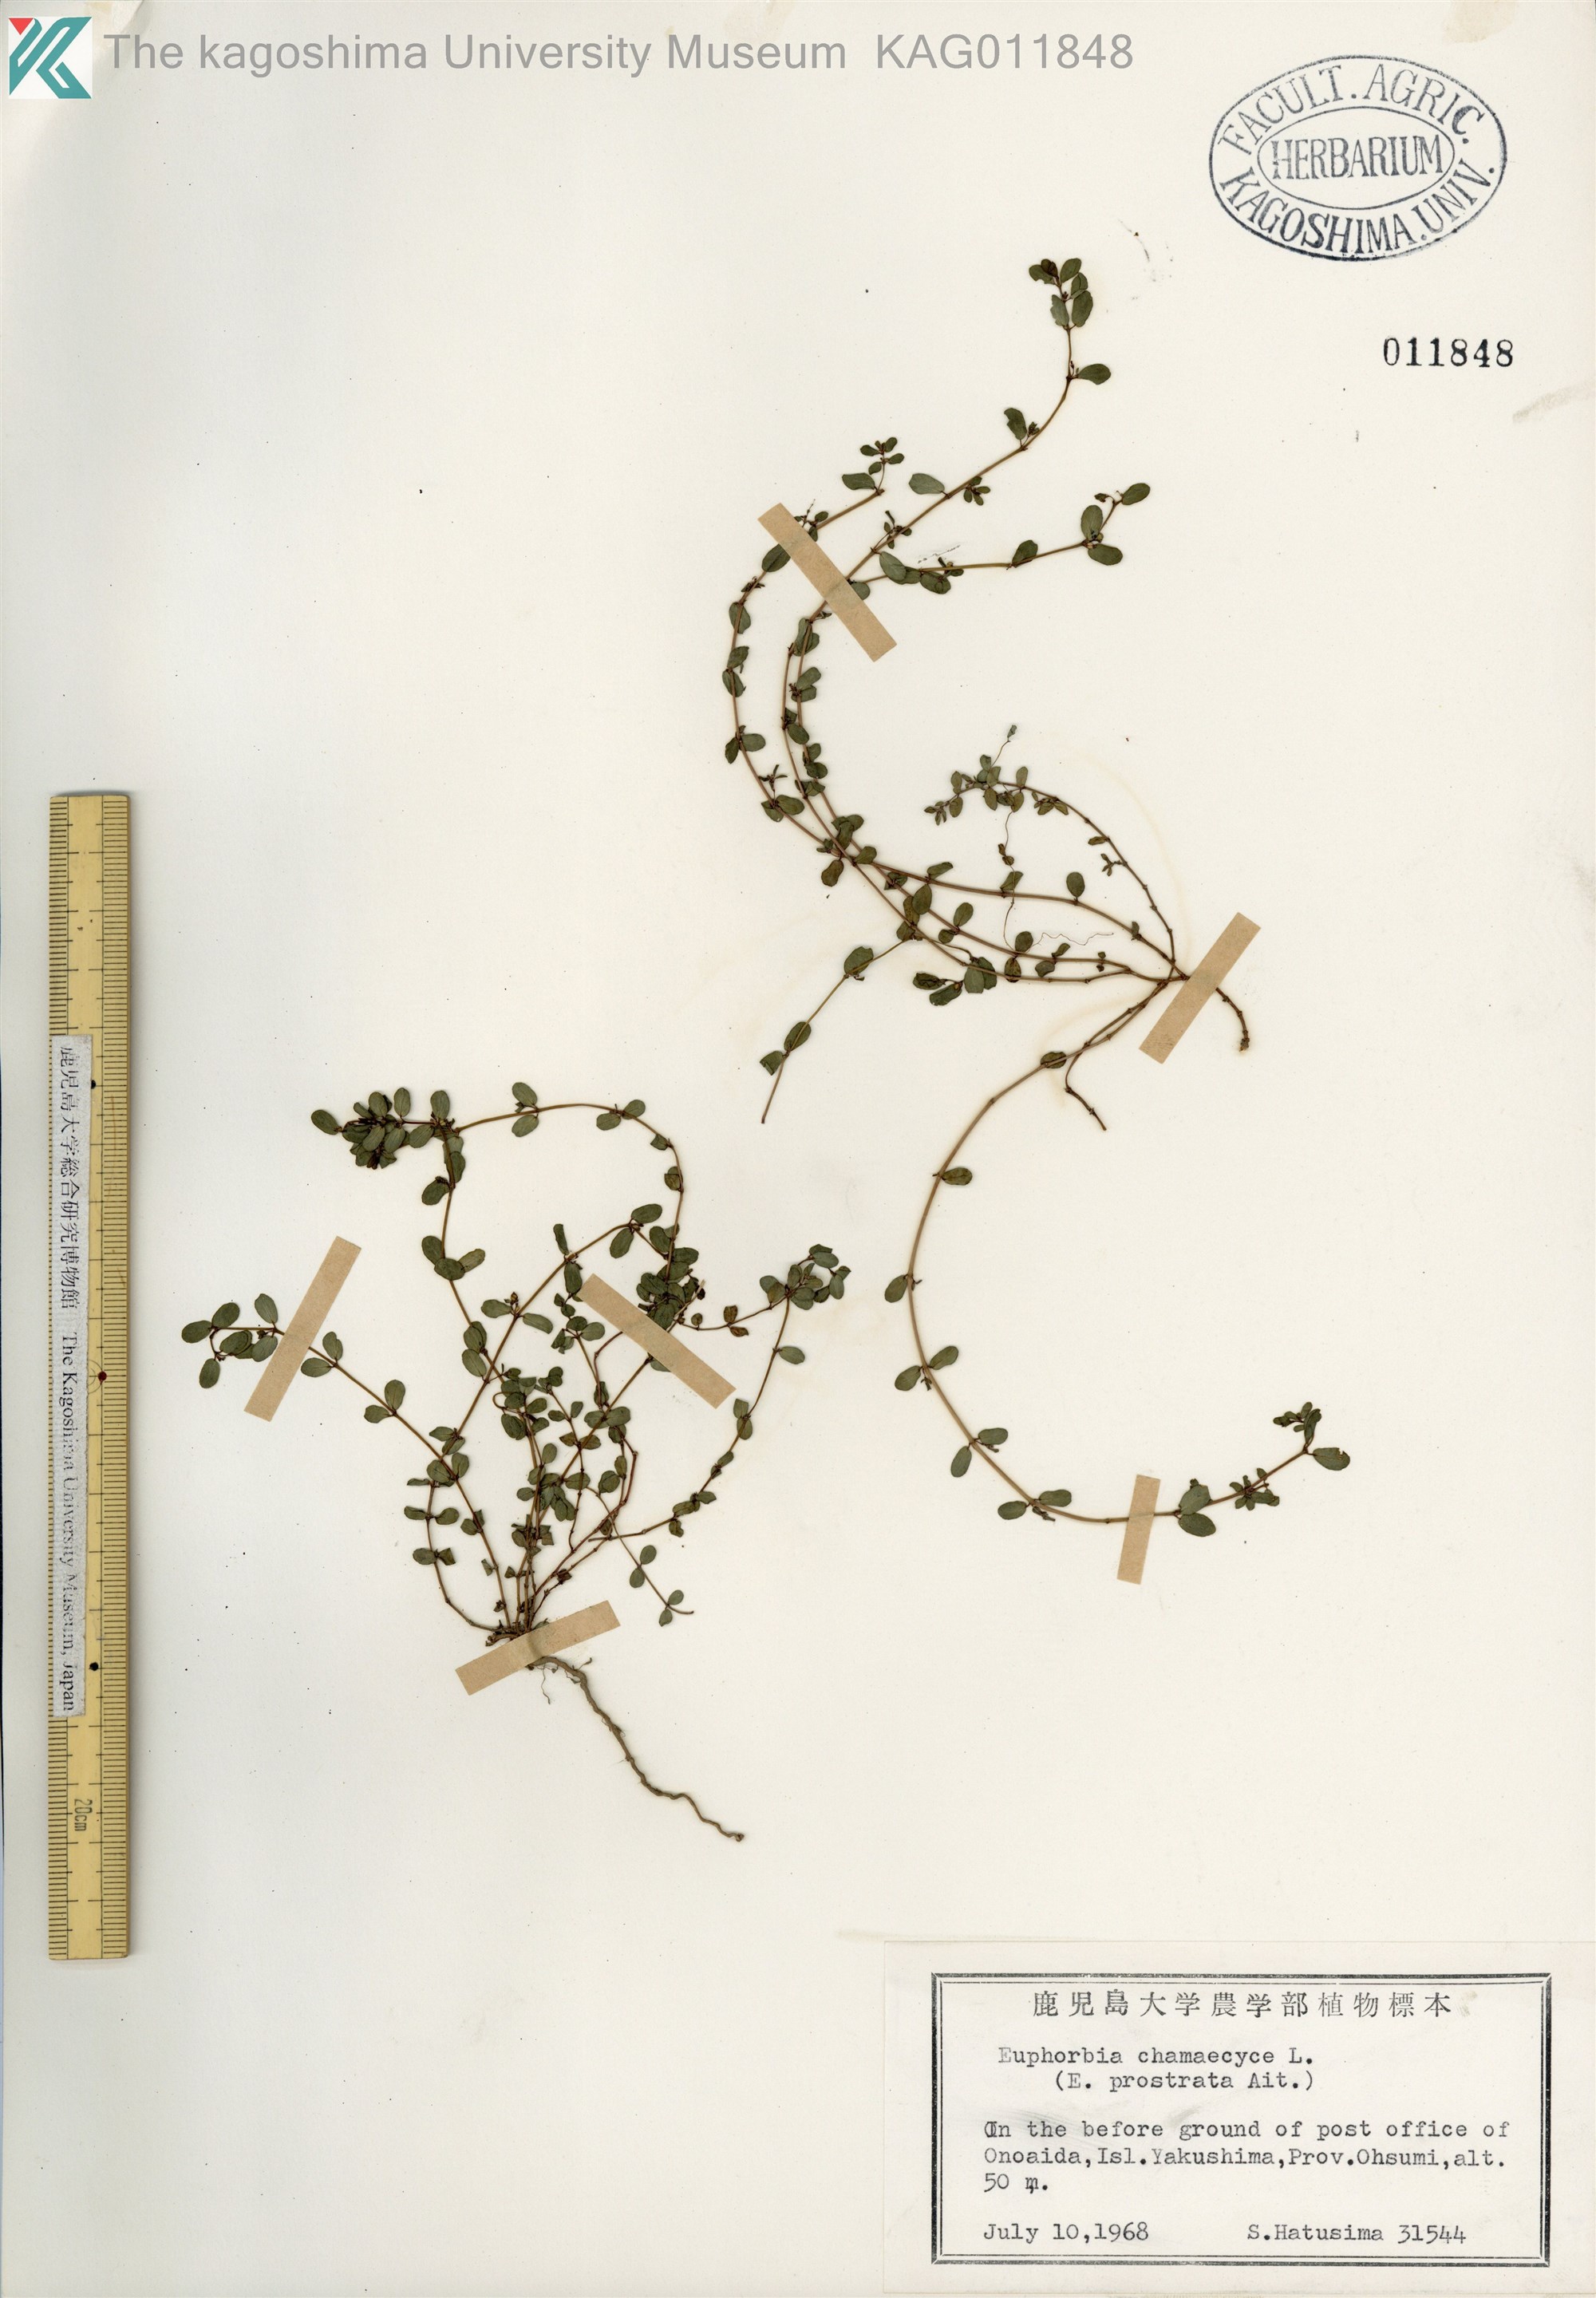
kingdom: Plantae
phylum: Tracheophyta
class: Magnoliopsida
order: Malpighiales
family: Euphorbiaceae
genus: Euphorbia
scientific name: Euphorbia prostrata
